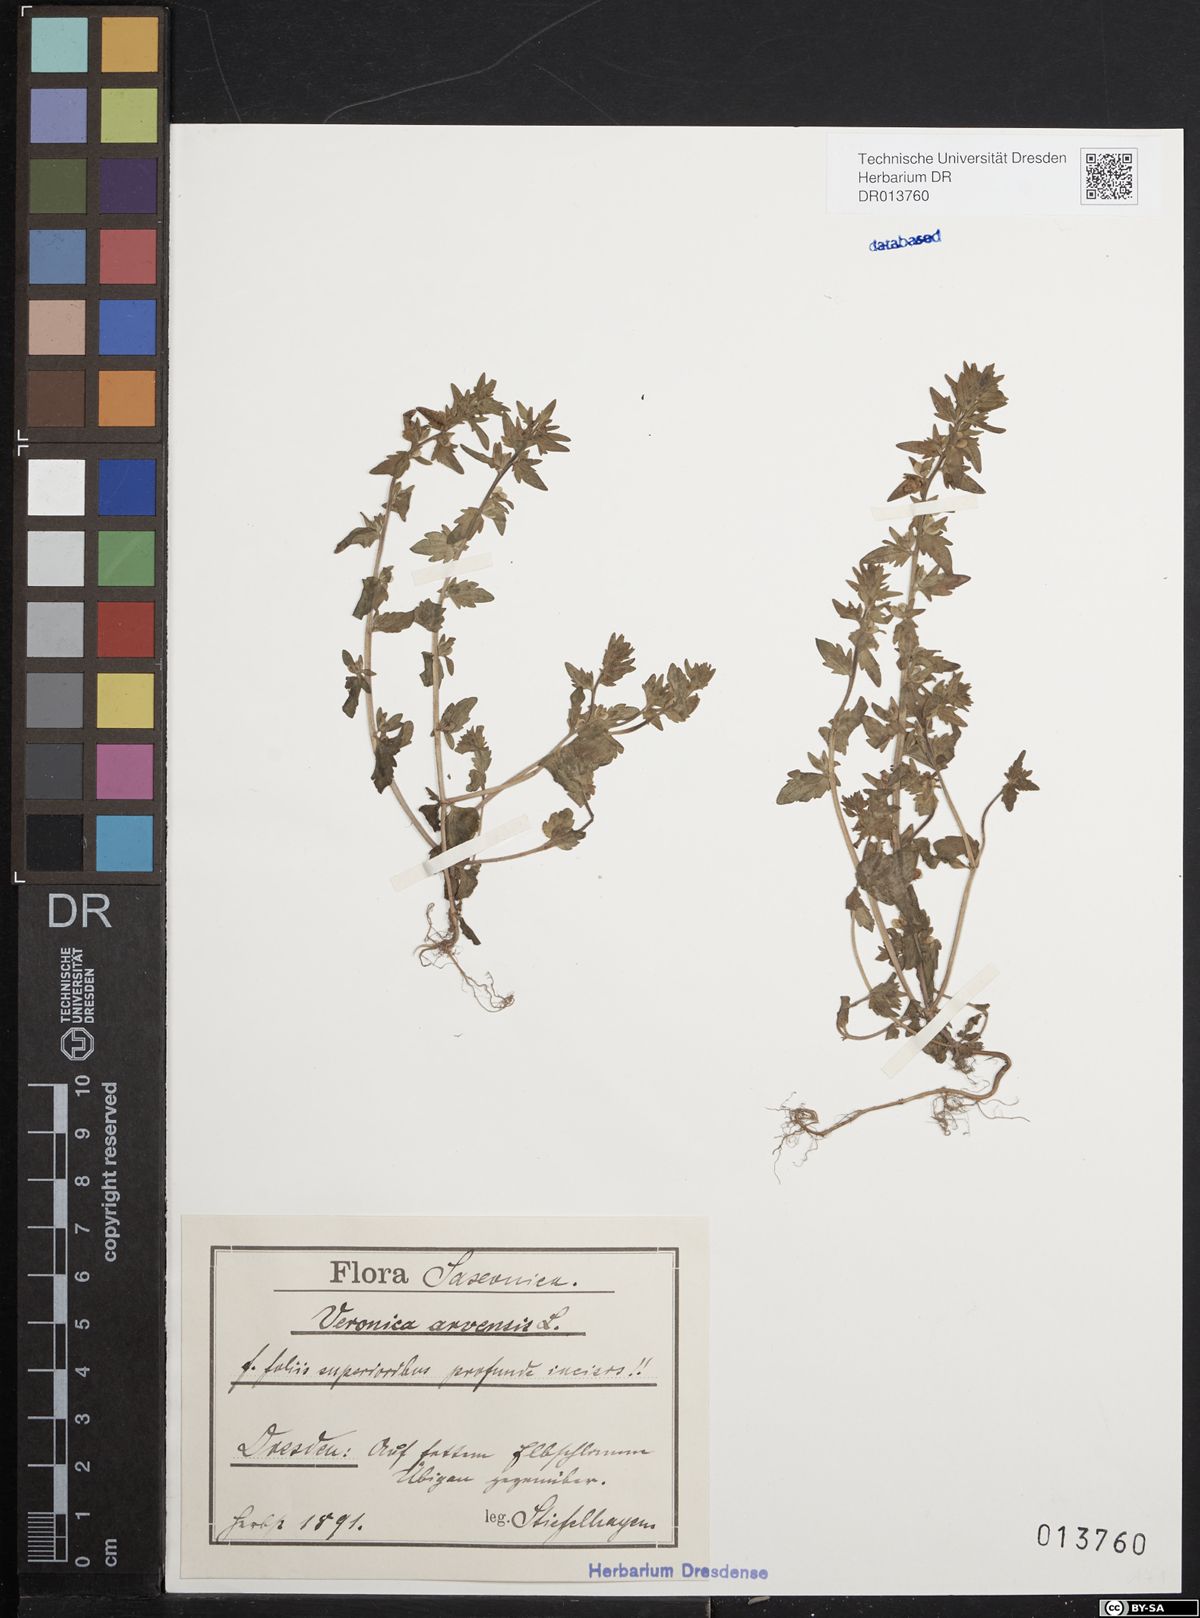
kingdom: Plantae
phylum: Tracheophyta
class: Magnoliopsida
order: Lamiales
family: Plantaginaceae
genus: Veronica
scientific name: Veronica arvensis
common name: Corn speedwell
